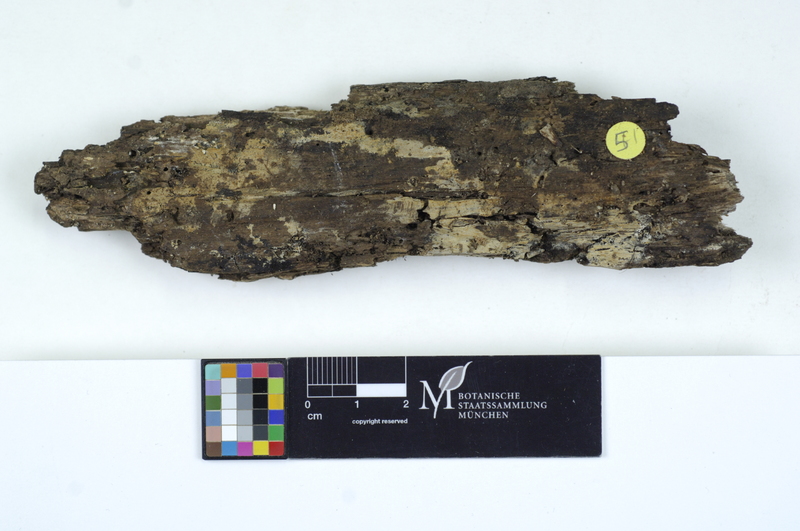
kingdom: Plantae
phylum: Tracheophyta
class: Magnoliopsida
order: Malpighiales
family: Salicaceae
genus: Populus
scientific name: Populus
